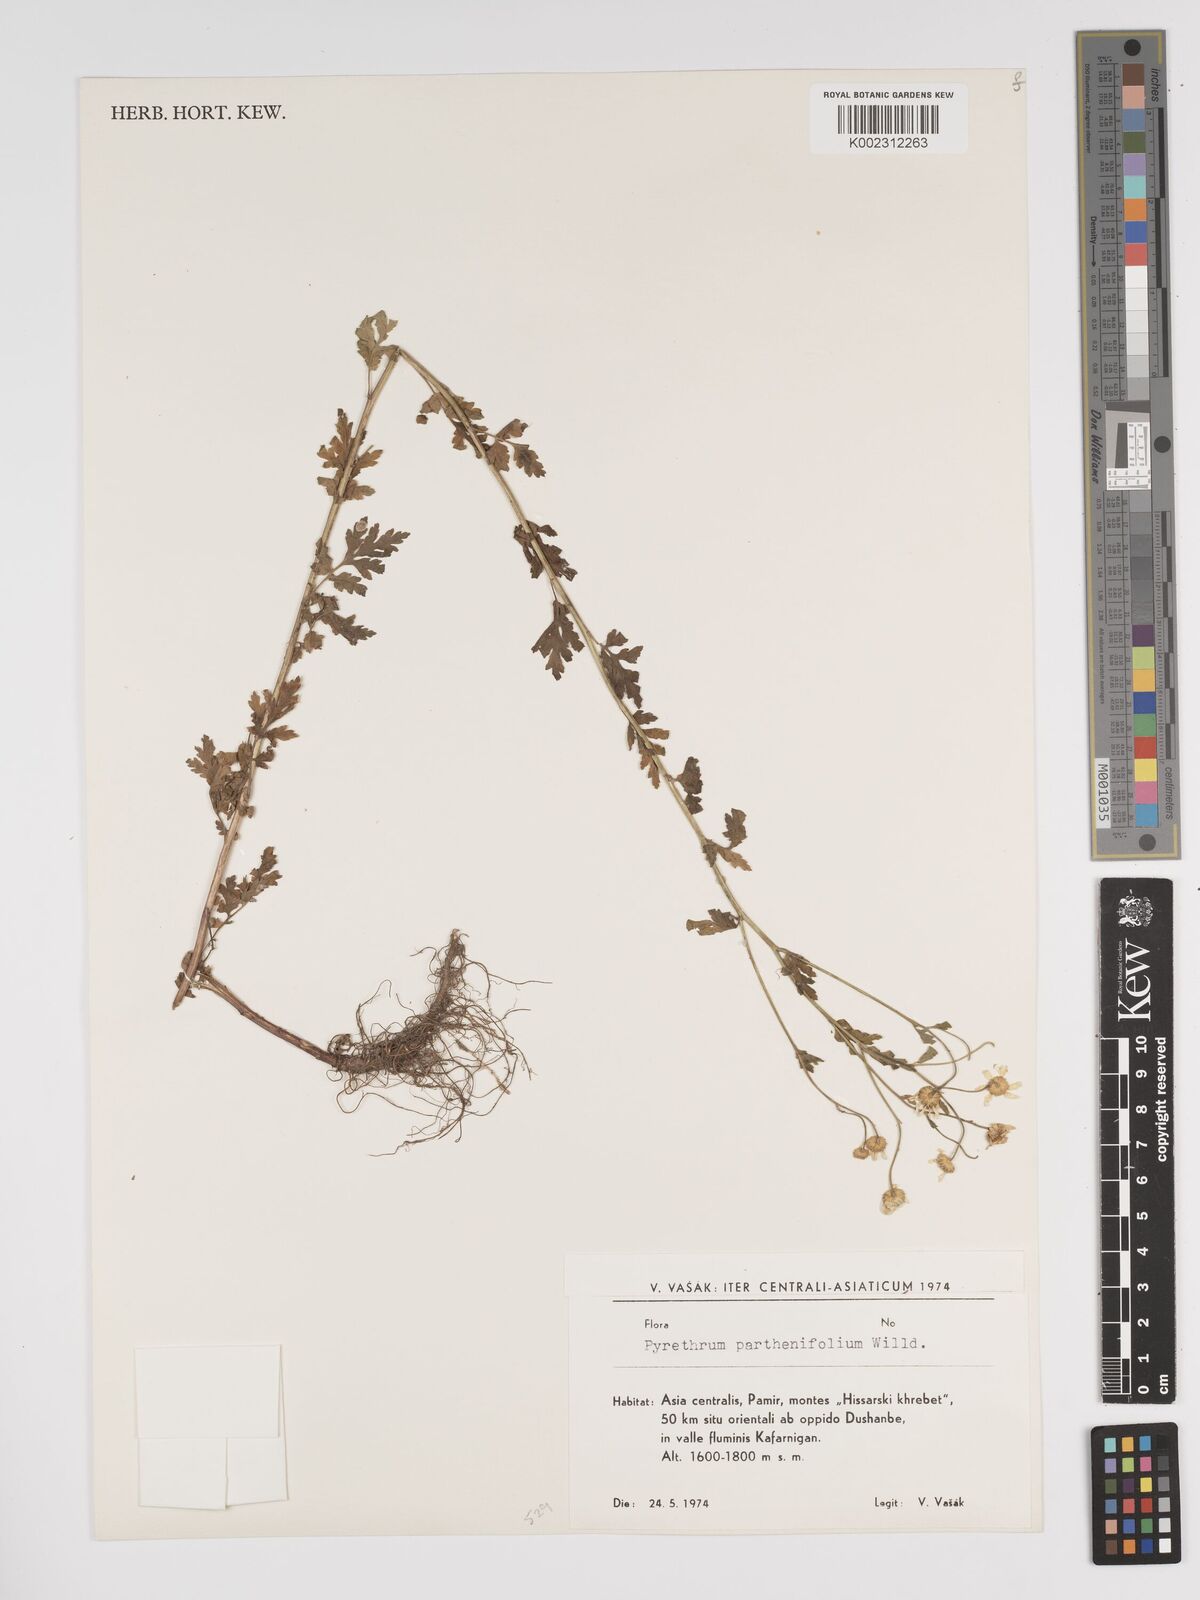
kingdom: Plantae
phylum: Tracheophyta
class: Magnoliopsida
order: Asterales
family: Asteraceae
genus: Tanacetum
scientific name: Tanacetum partheniifolium
